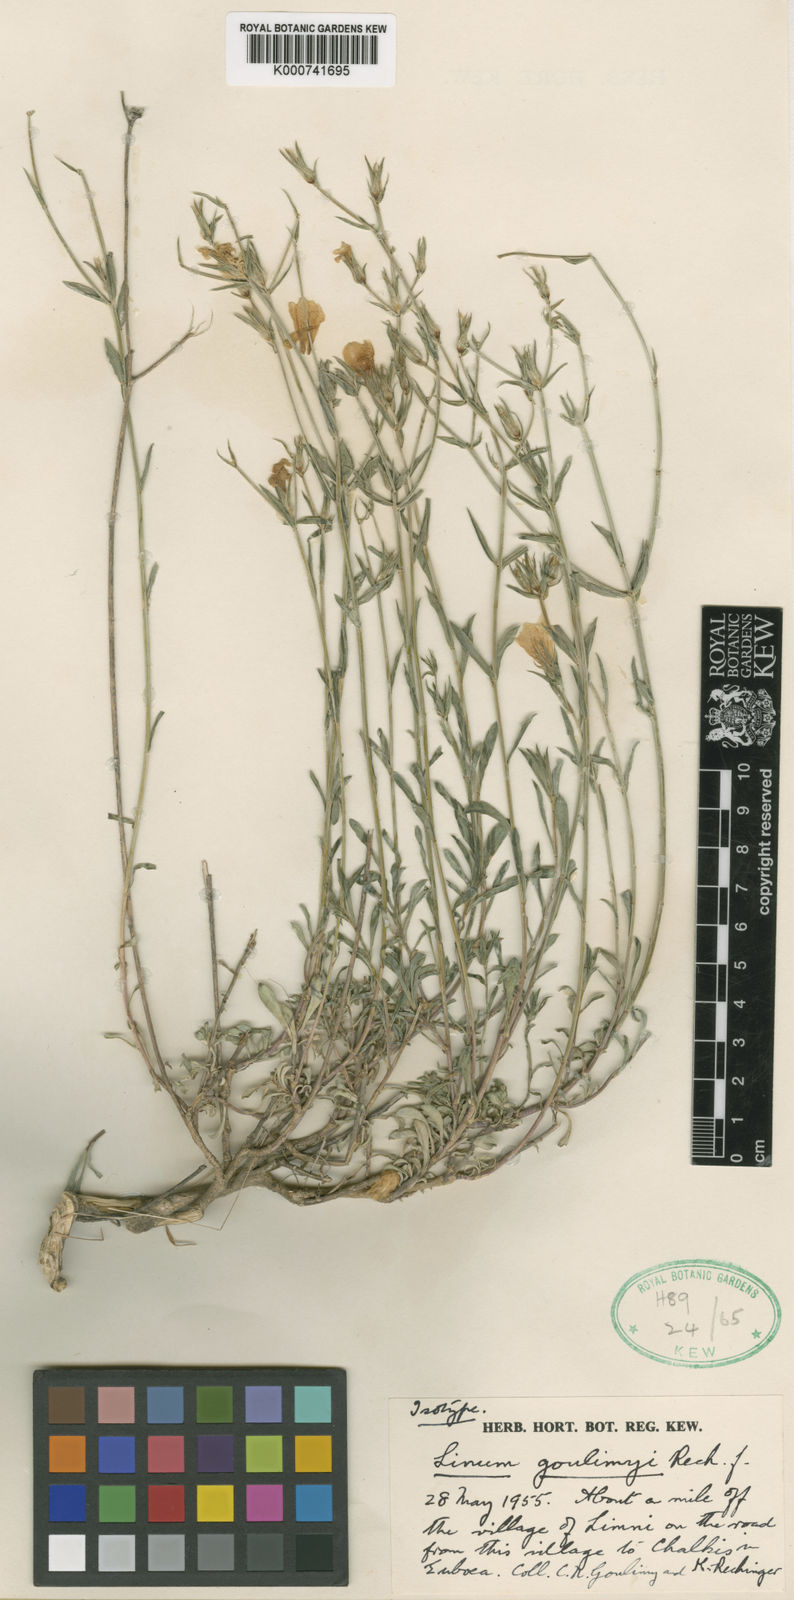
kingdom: Plantae
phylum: Tracheophyta
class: Magnoliopsida
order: Malpighiales
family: Linaceae
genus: Linum
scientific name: Linum goulimyi
